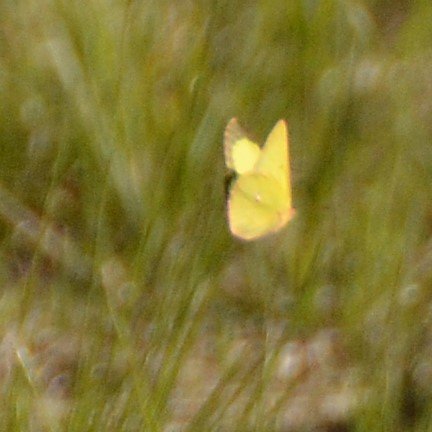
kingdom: Animalia
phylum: Arthropoda
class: Insecta
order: Lepidoptera
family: Pieridae
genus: Colias
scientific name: Colias interior
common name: Pink-edged Sulphur
